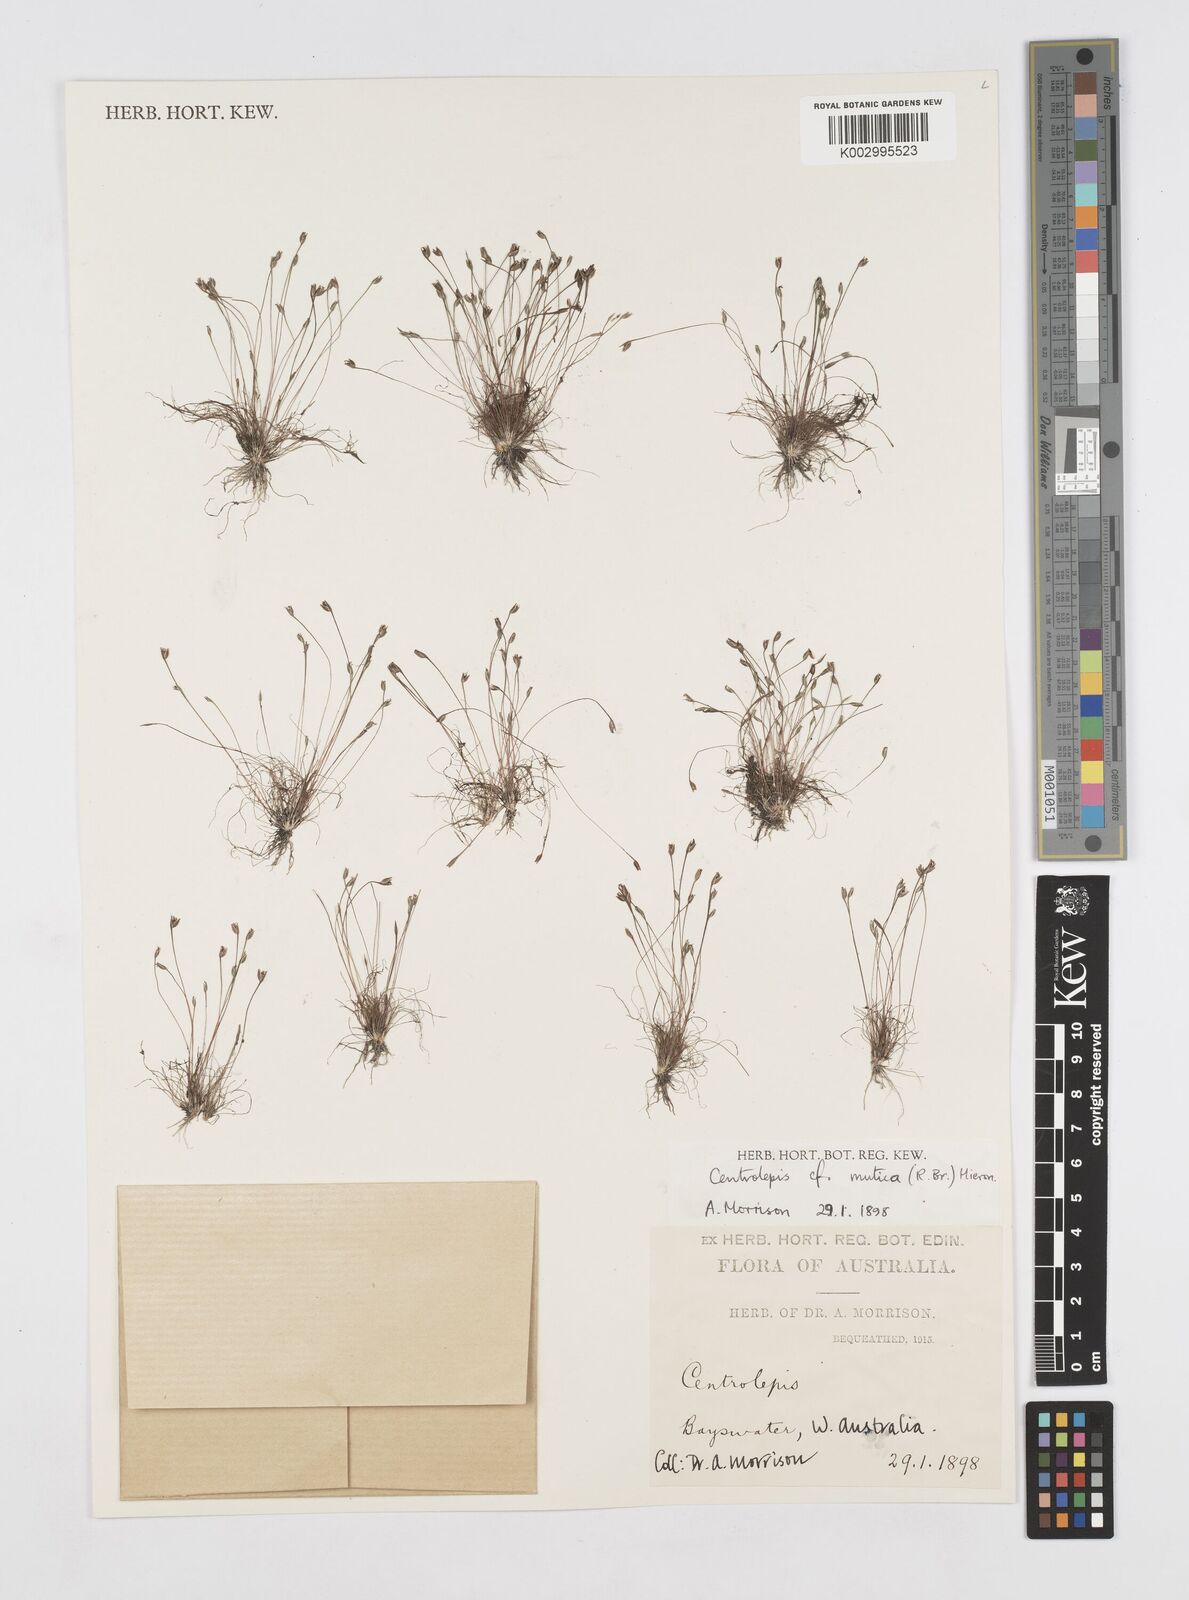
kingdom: Plantae
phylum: Tracheophyta
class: Liliopsida
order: Poales
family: Restionaceae
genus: Centrolepis
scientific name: Centrolepis mutica
